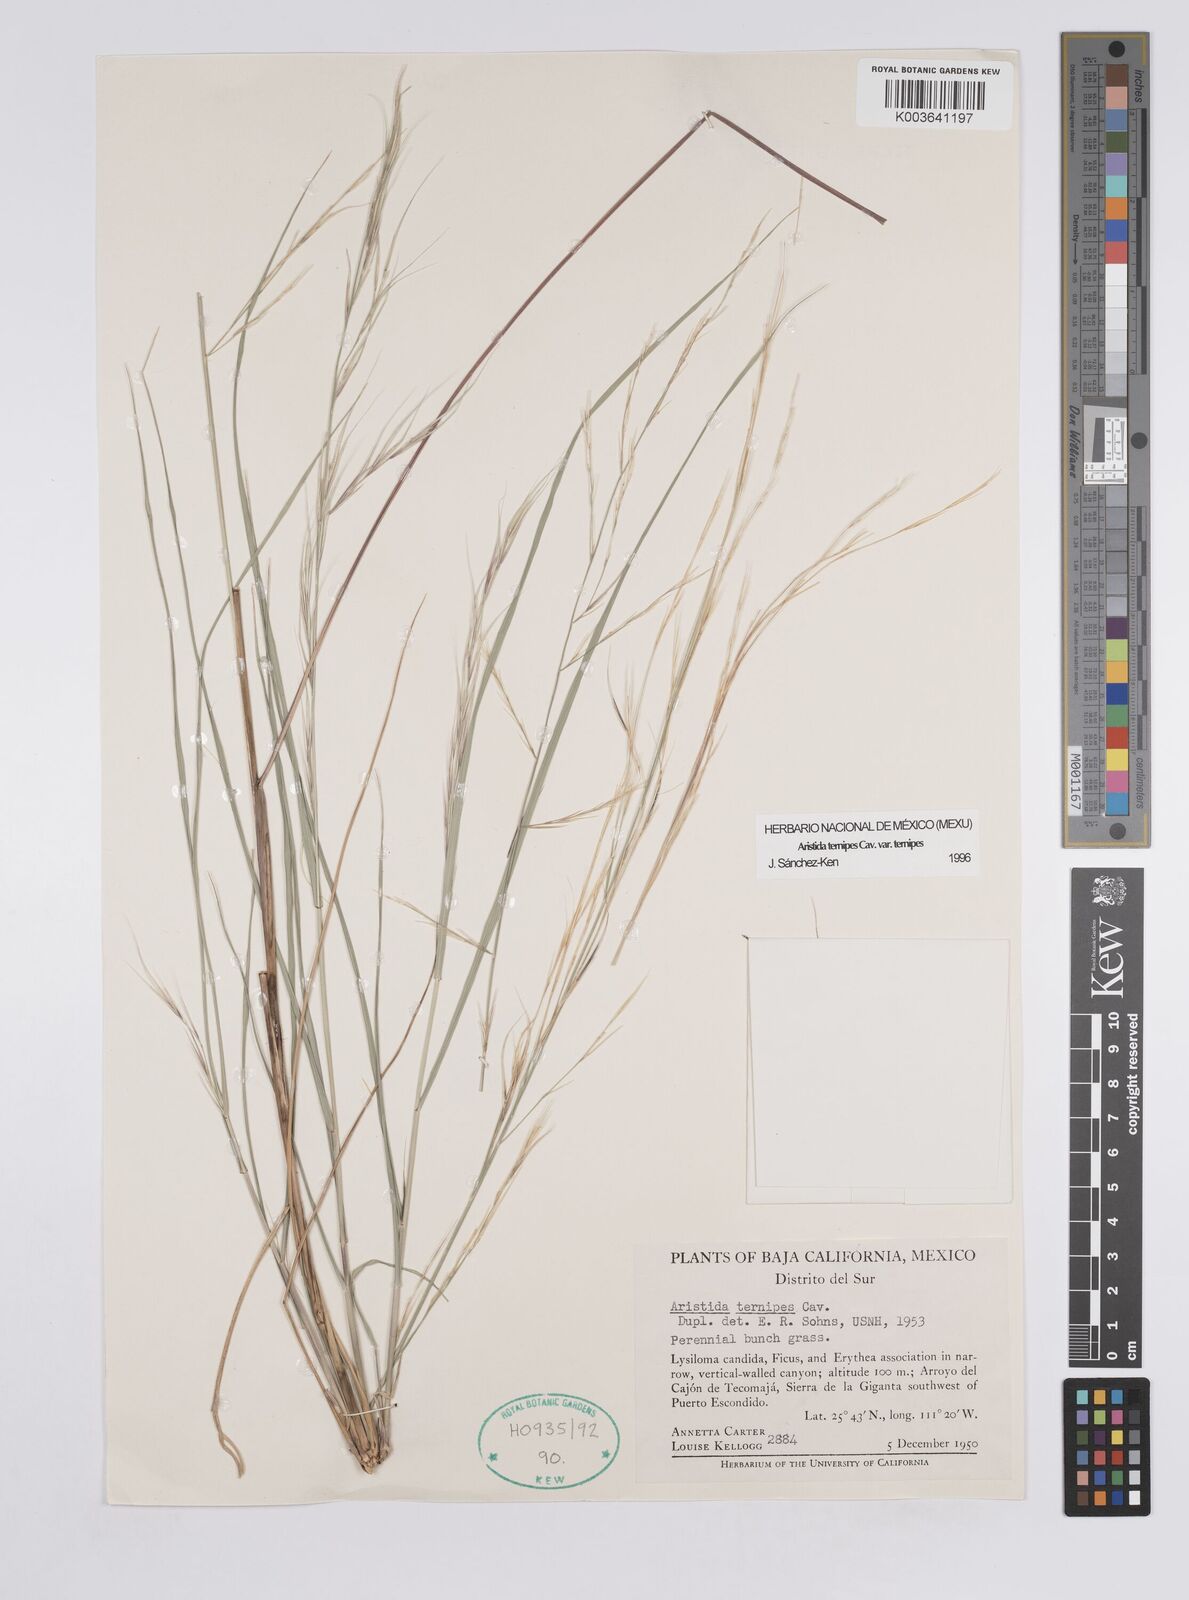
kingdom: Plantae
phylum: Tracheophyta
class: Liliopsida
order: Poales
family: Poaceae
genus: Aristida
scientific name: Aristida ternipes
